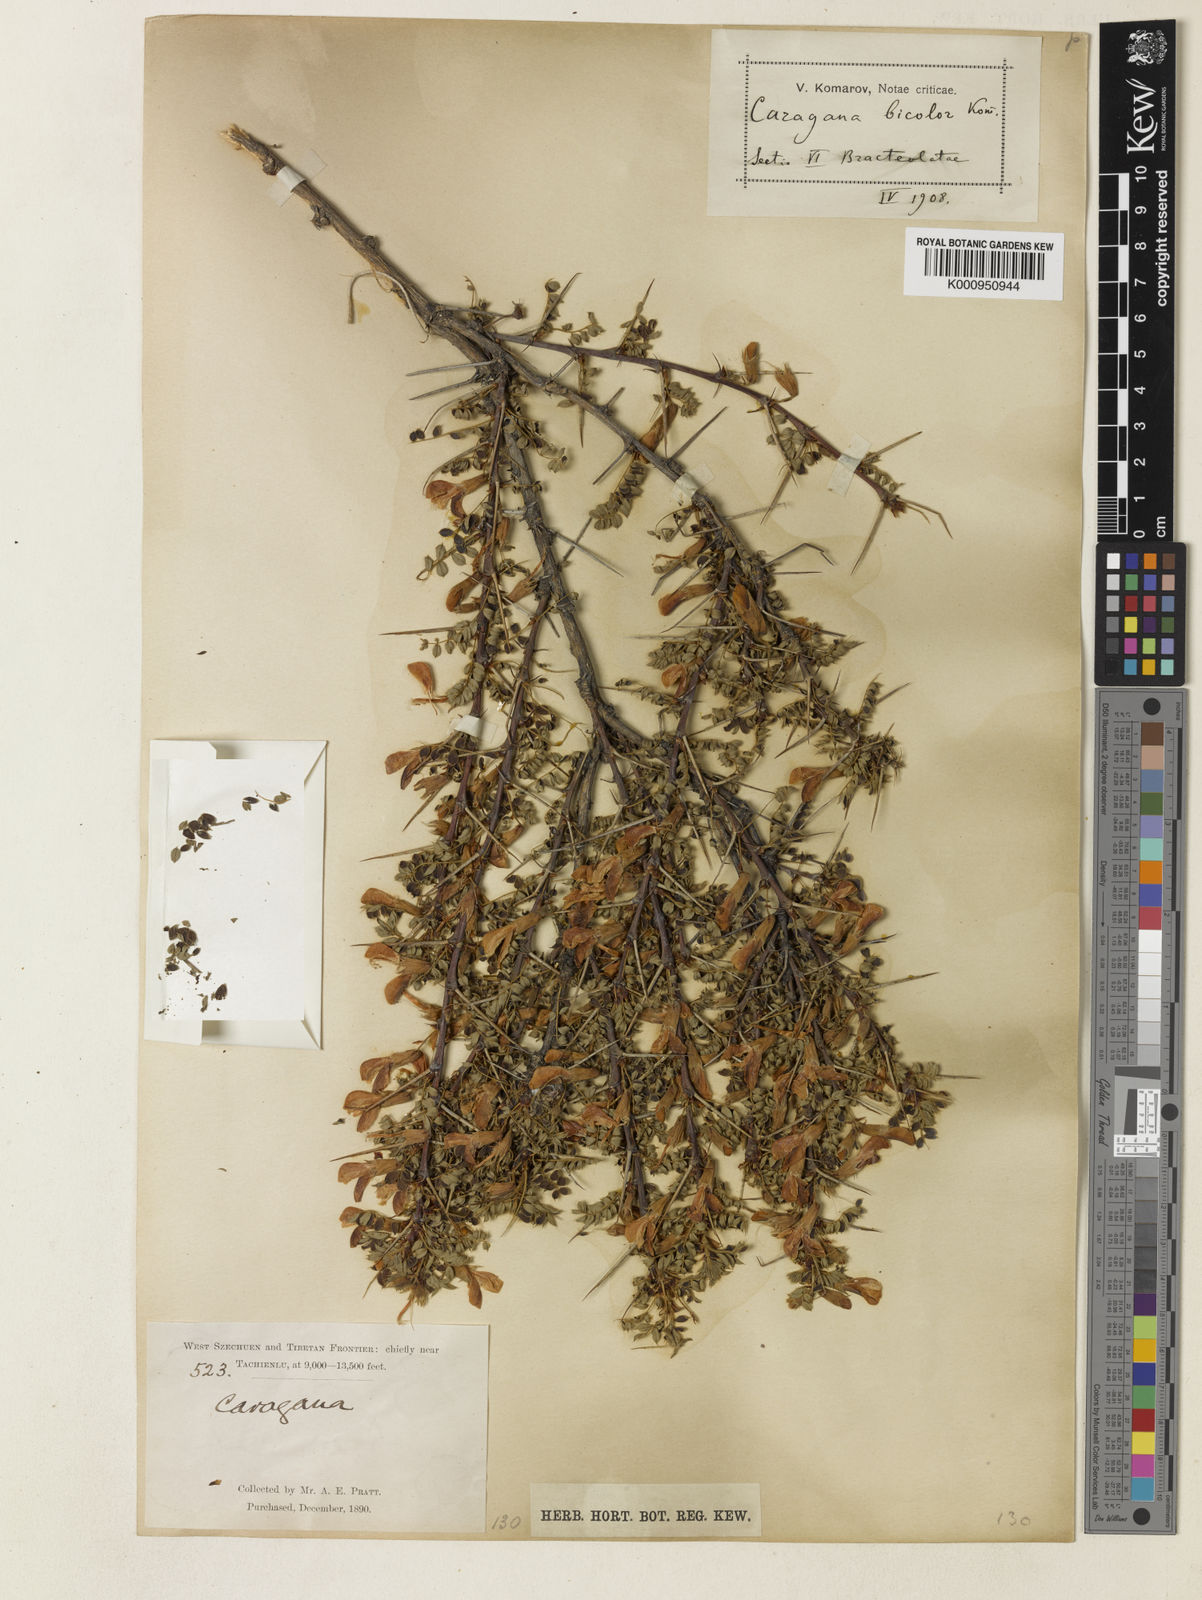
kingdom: Plantae
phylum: Tracheophyta
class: Magnoliopsida
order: Fabales
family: Fabaceae
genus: Caragana
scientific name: Caragana bicolor
